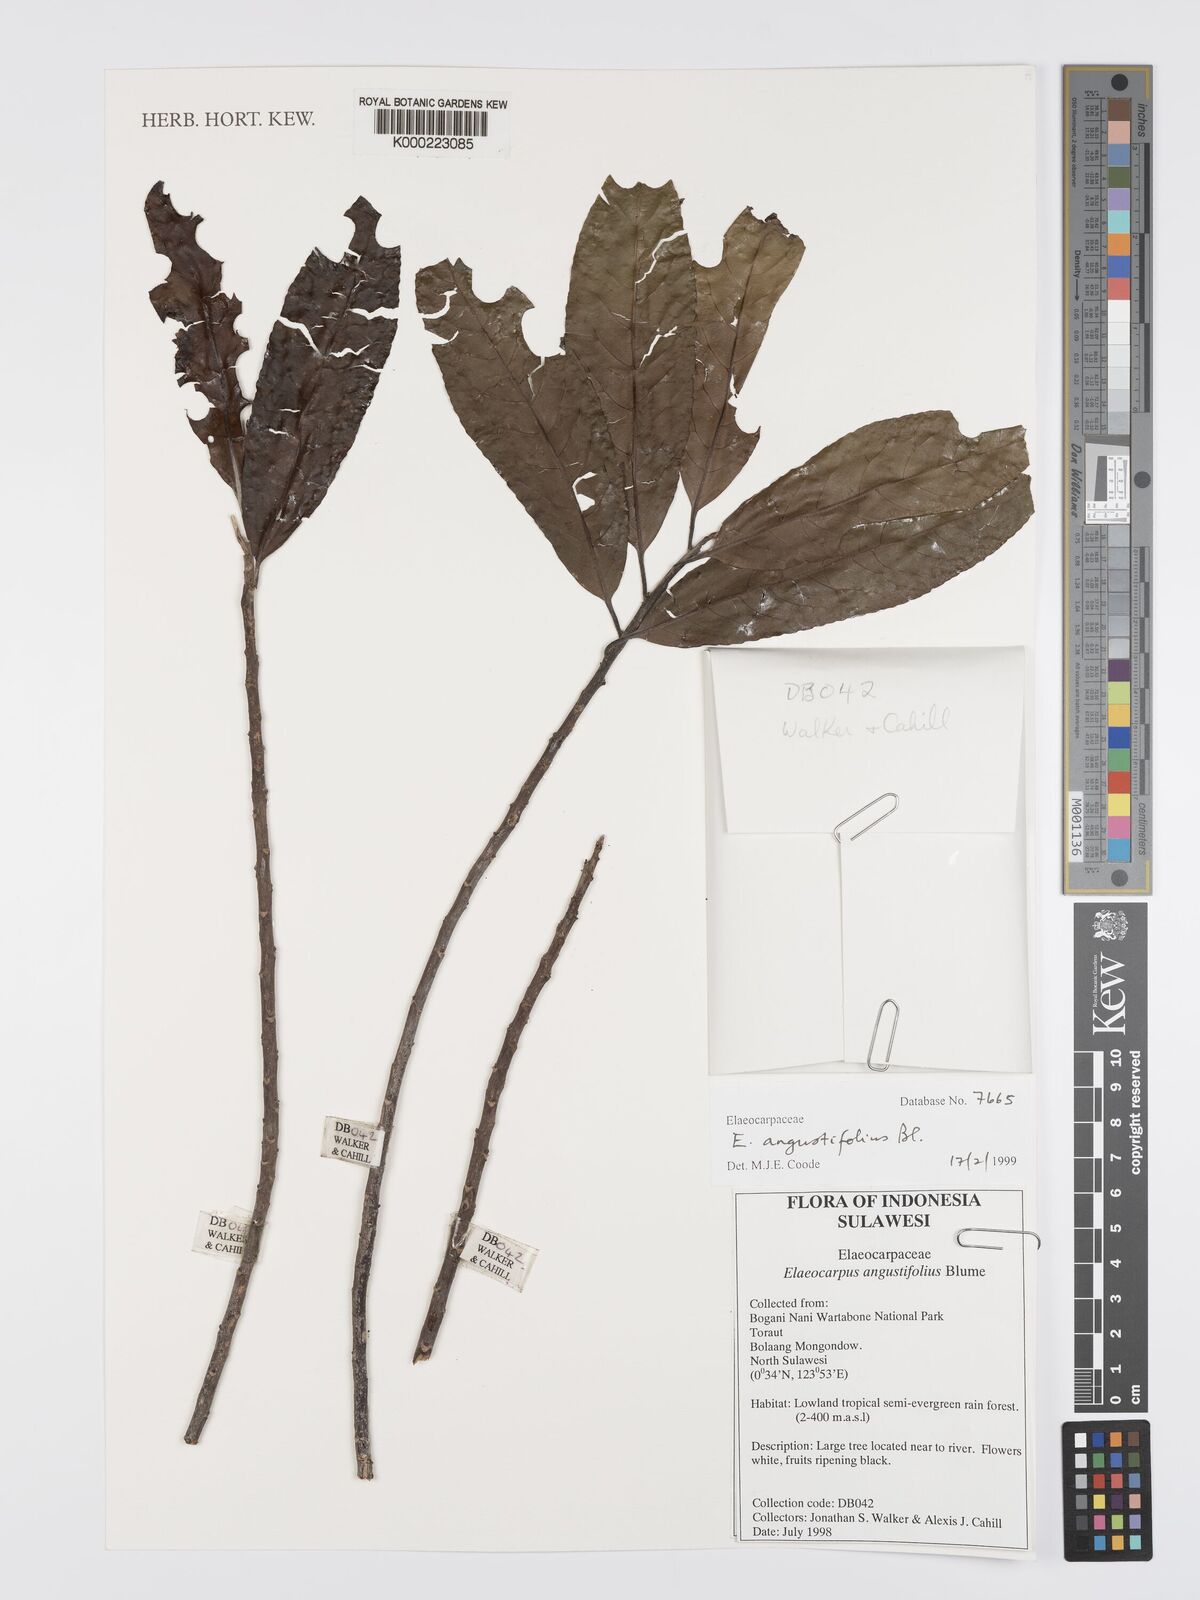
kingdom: Plantae
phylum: Tracheophyta
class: Magnoliopsida
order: Oxalidales
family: Elaeocarpaceae
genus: Elaeocarpus
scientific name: Elaeocarpus angustifolius
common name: Blue marble tree
